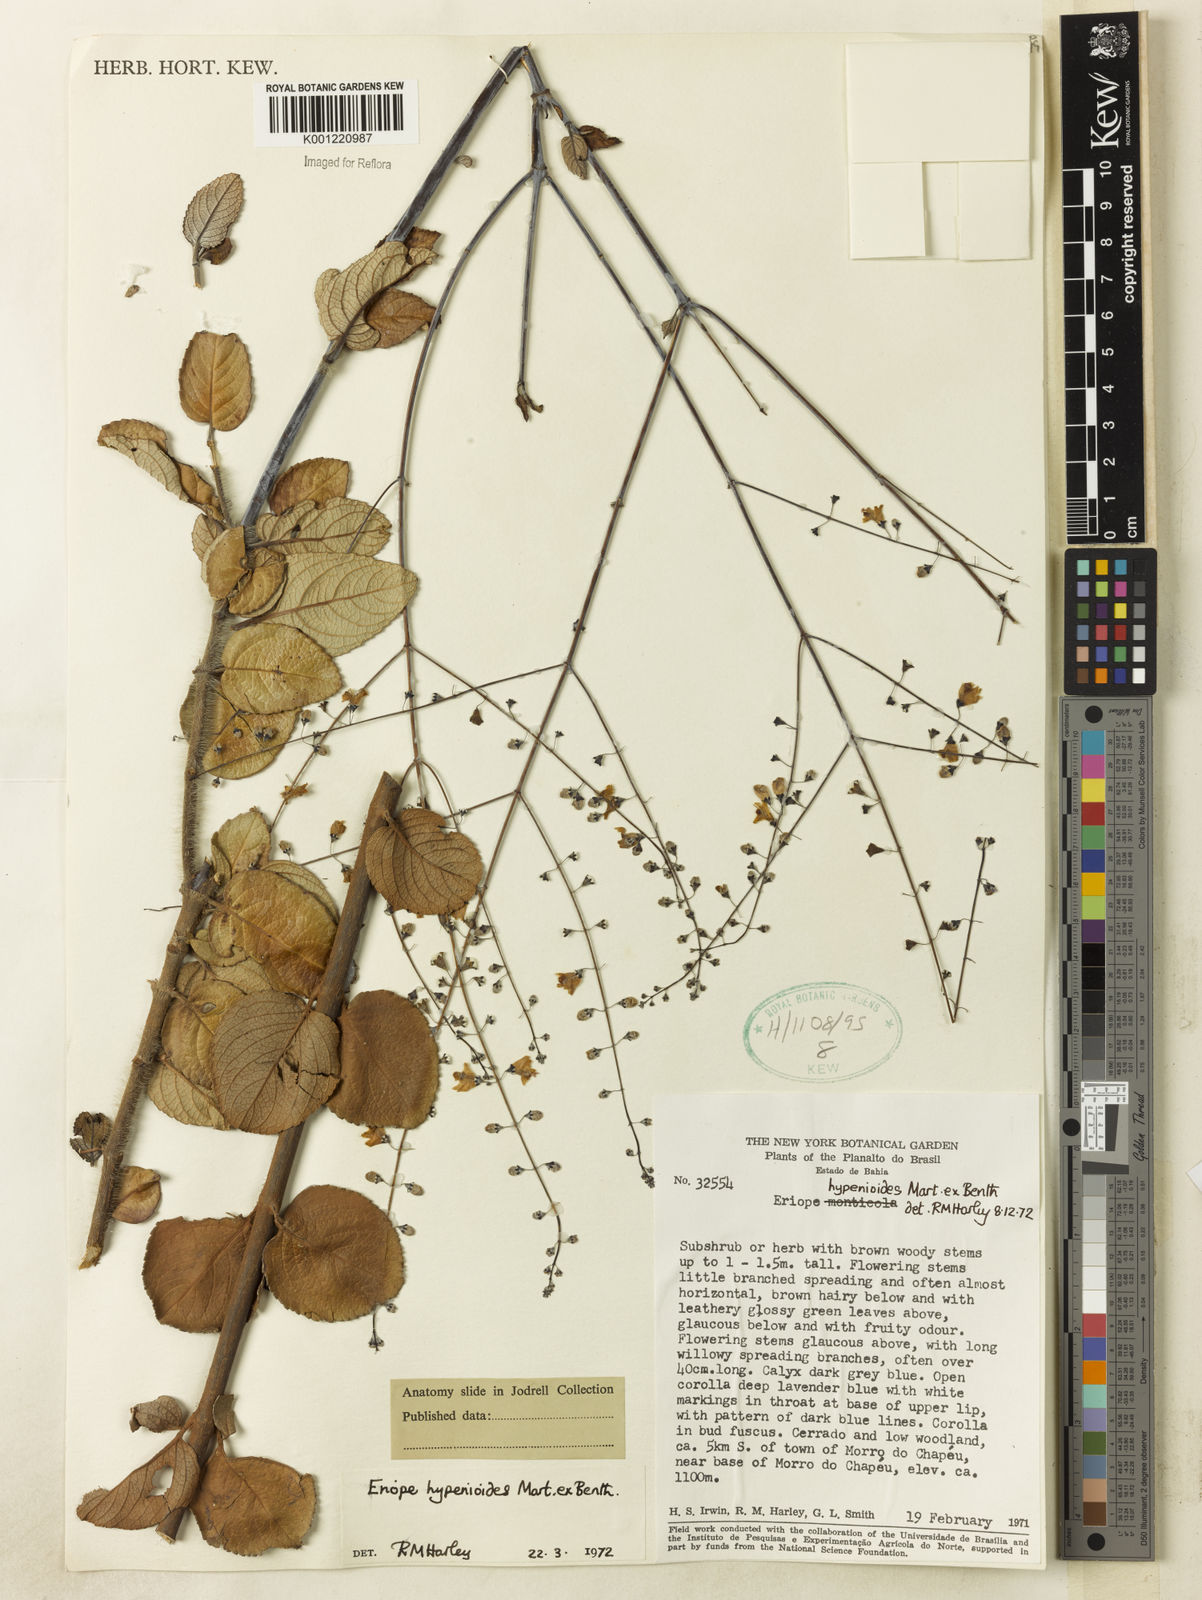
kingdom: Plantae
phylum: Tracheophyta
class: Magnoliopsida
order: Lamiales
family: Lamiaceae
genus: Eriope
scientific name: Eriope hypenioides
